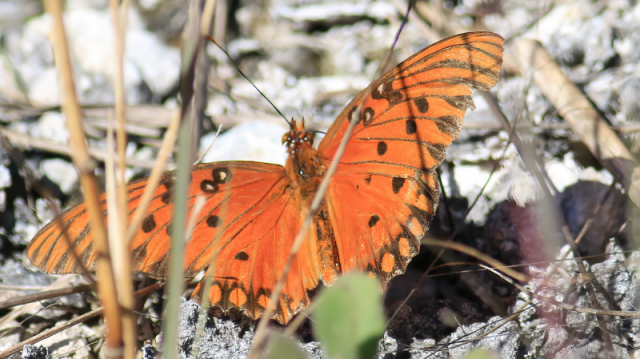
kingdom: Animalia
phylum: Arthropoda
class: Insecta
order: Lepidoptera
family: Nymphalidae
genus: Dione
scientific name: Dione vanillae
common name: Gulf Fritillary
